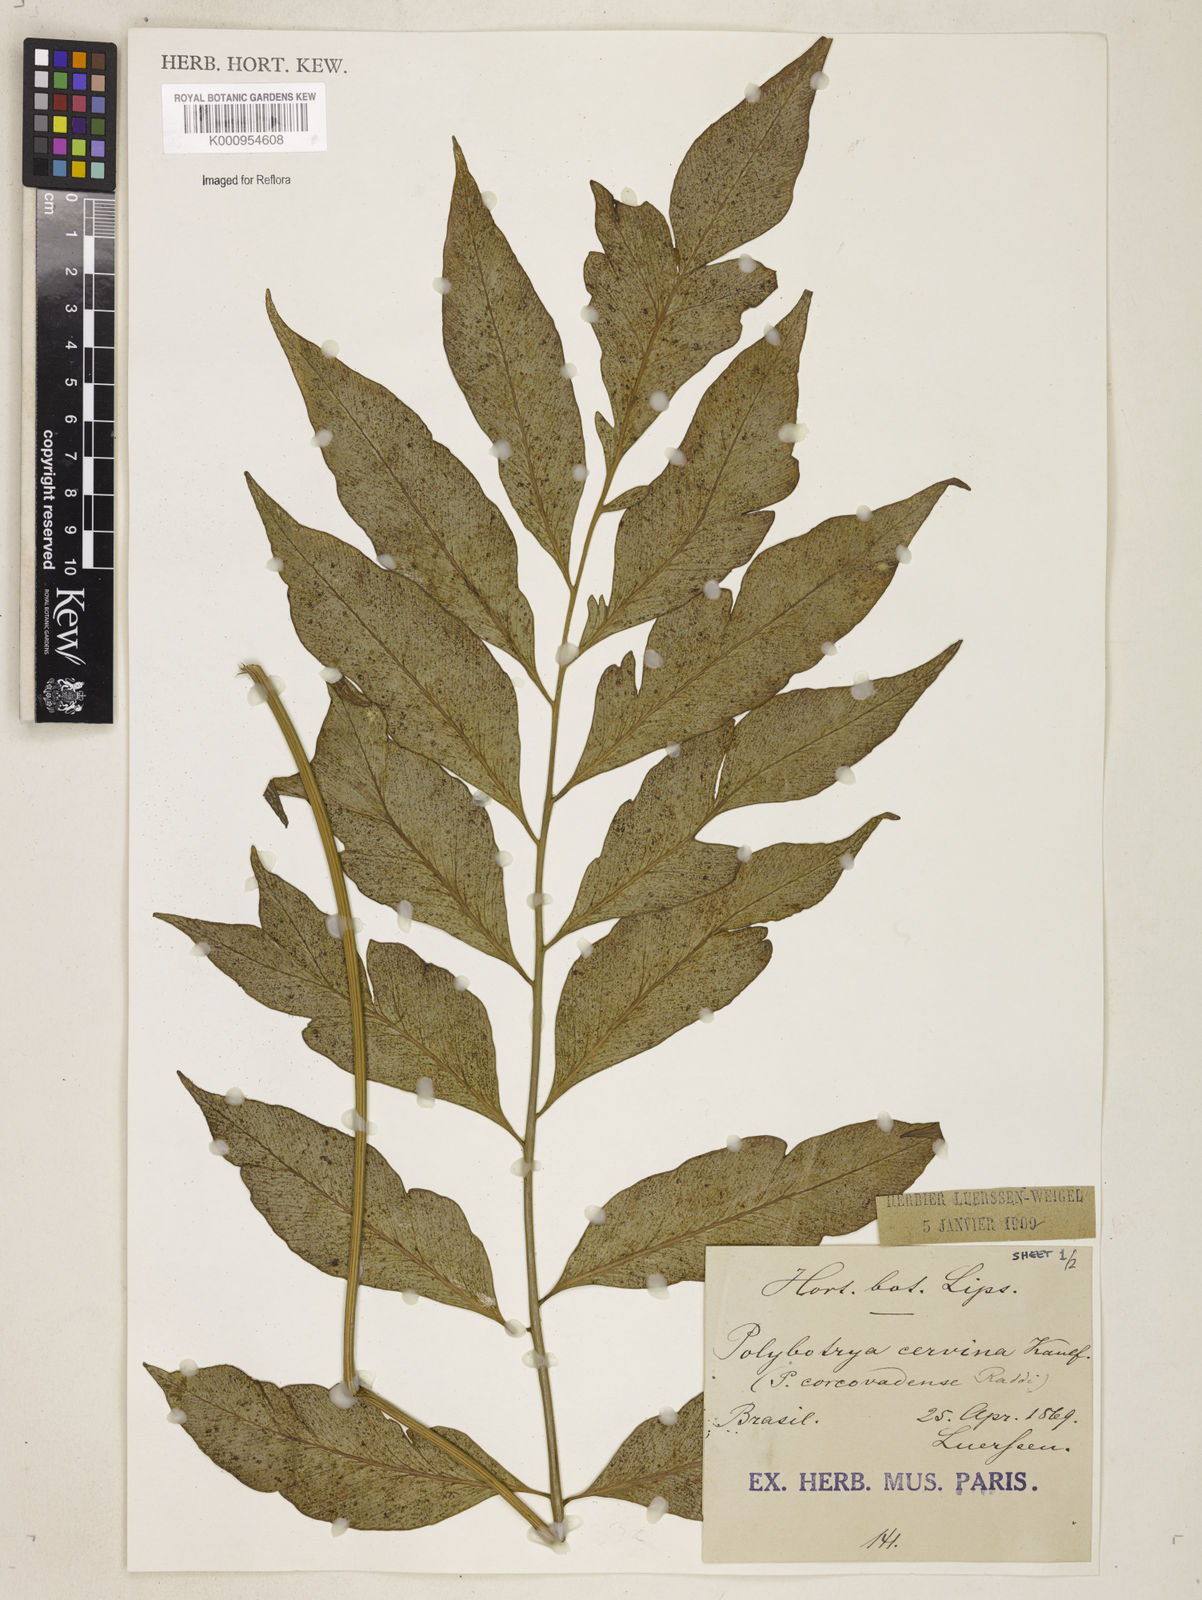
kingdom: Plantae
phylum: Tracheophyta
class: Polypodiopsida
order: Polypodiales
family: Dryopteridaceae
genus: Polystichum
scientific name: Polystichum
